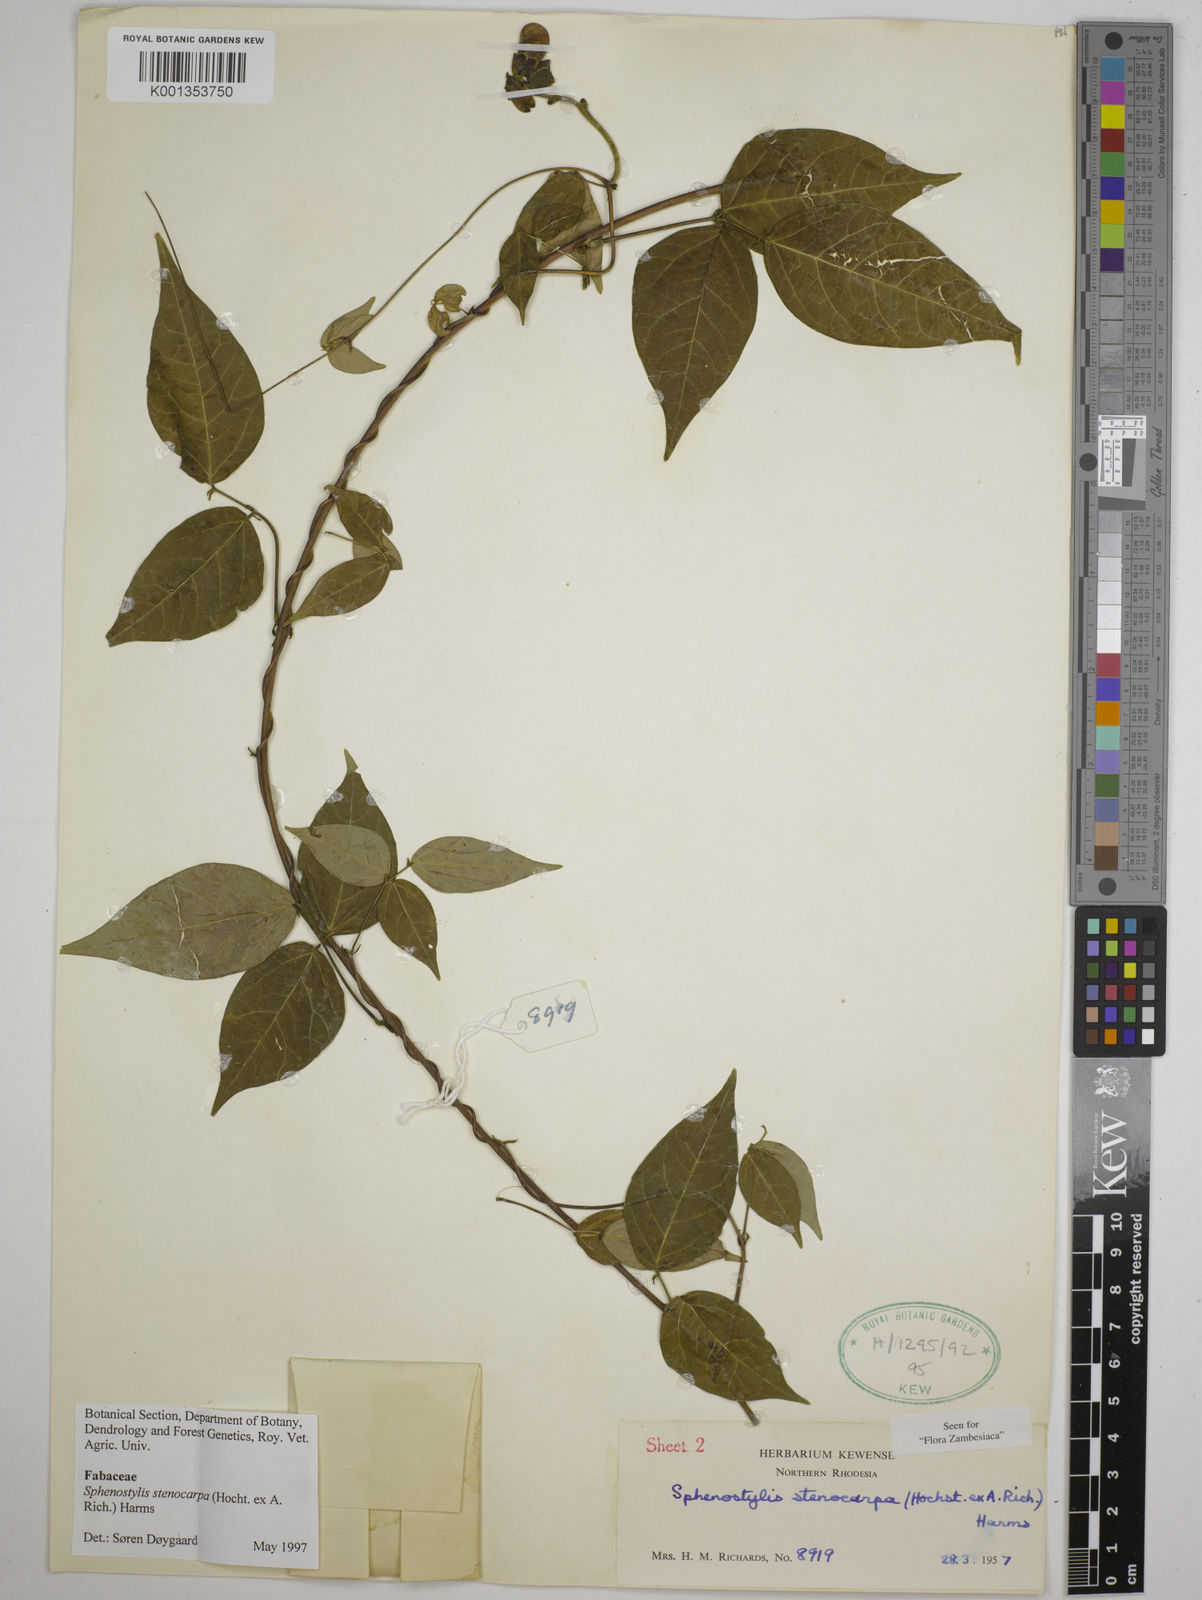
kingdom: Plantae
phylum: Tracheophyta
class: Magnoliopsida
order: Fabales
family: Fabaceae
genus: Sphenostylis
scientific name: Sphenostylis stenocarpa
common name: Yam-pea
